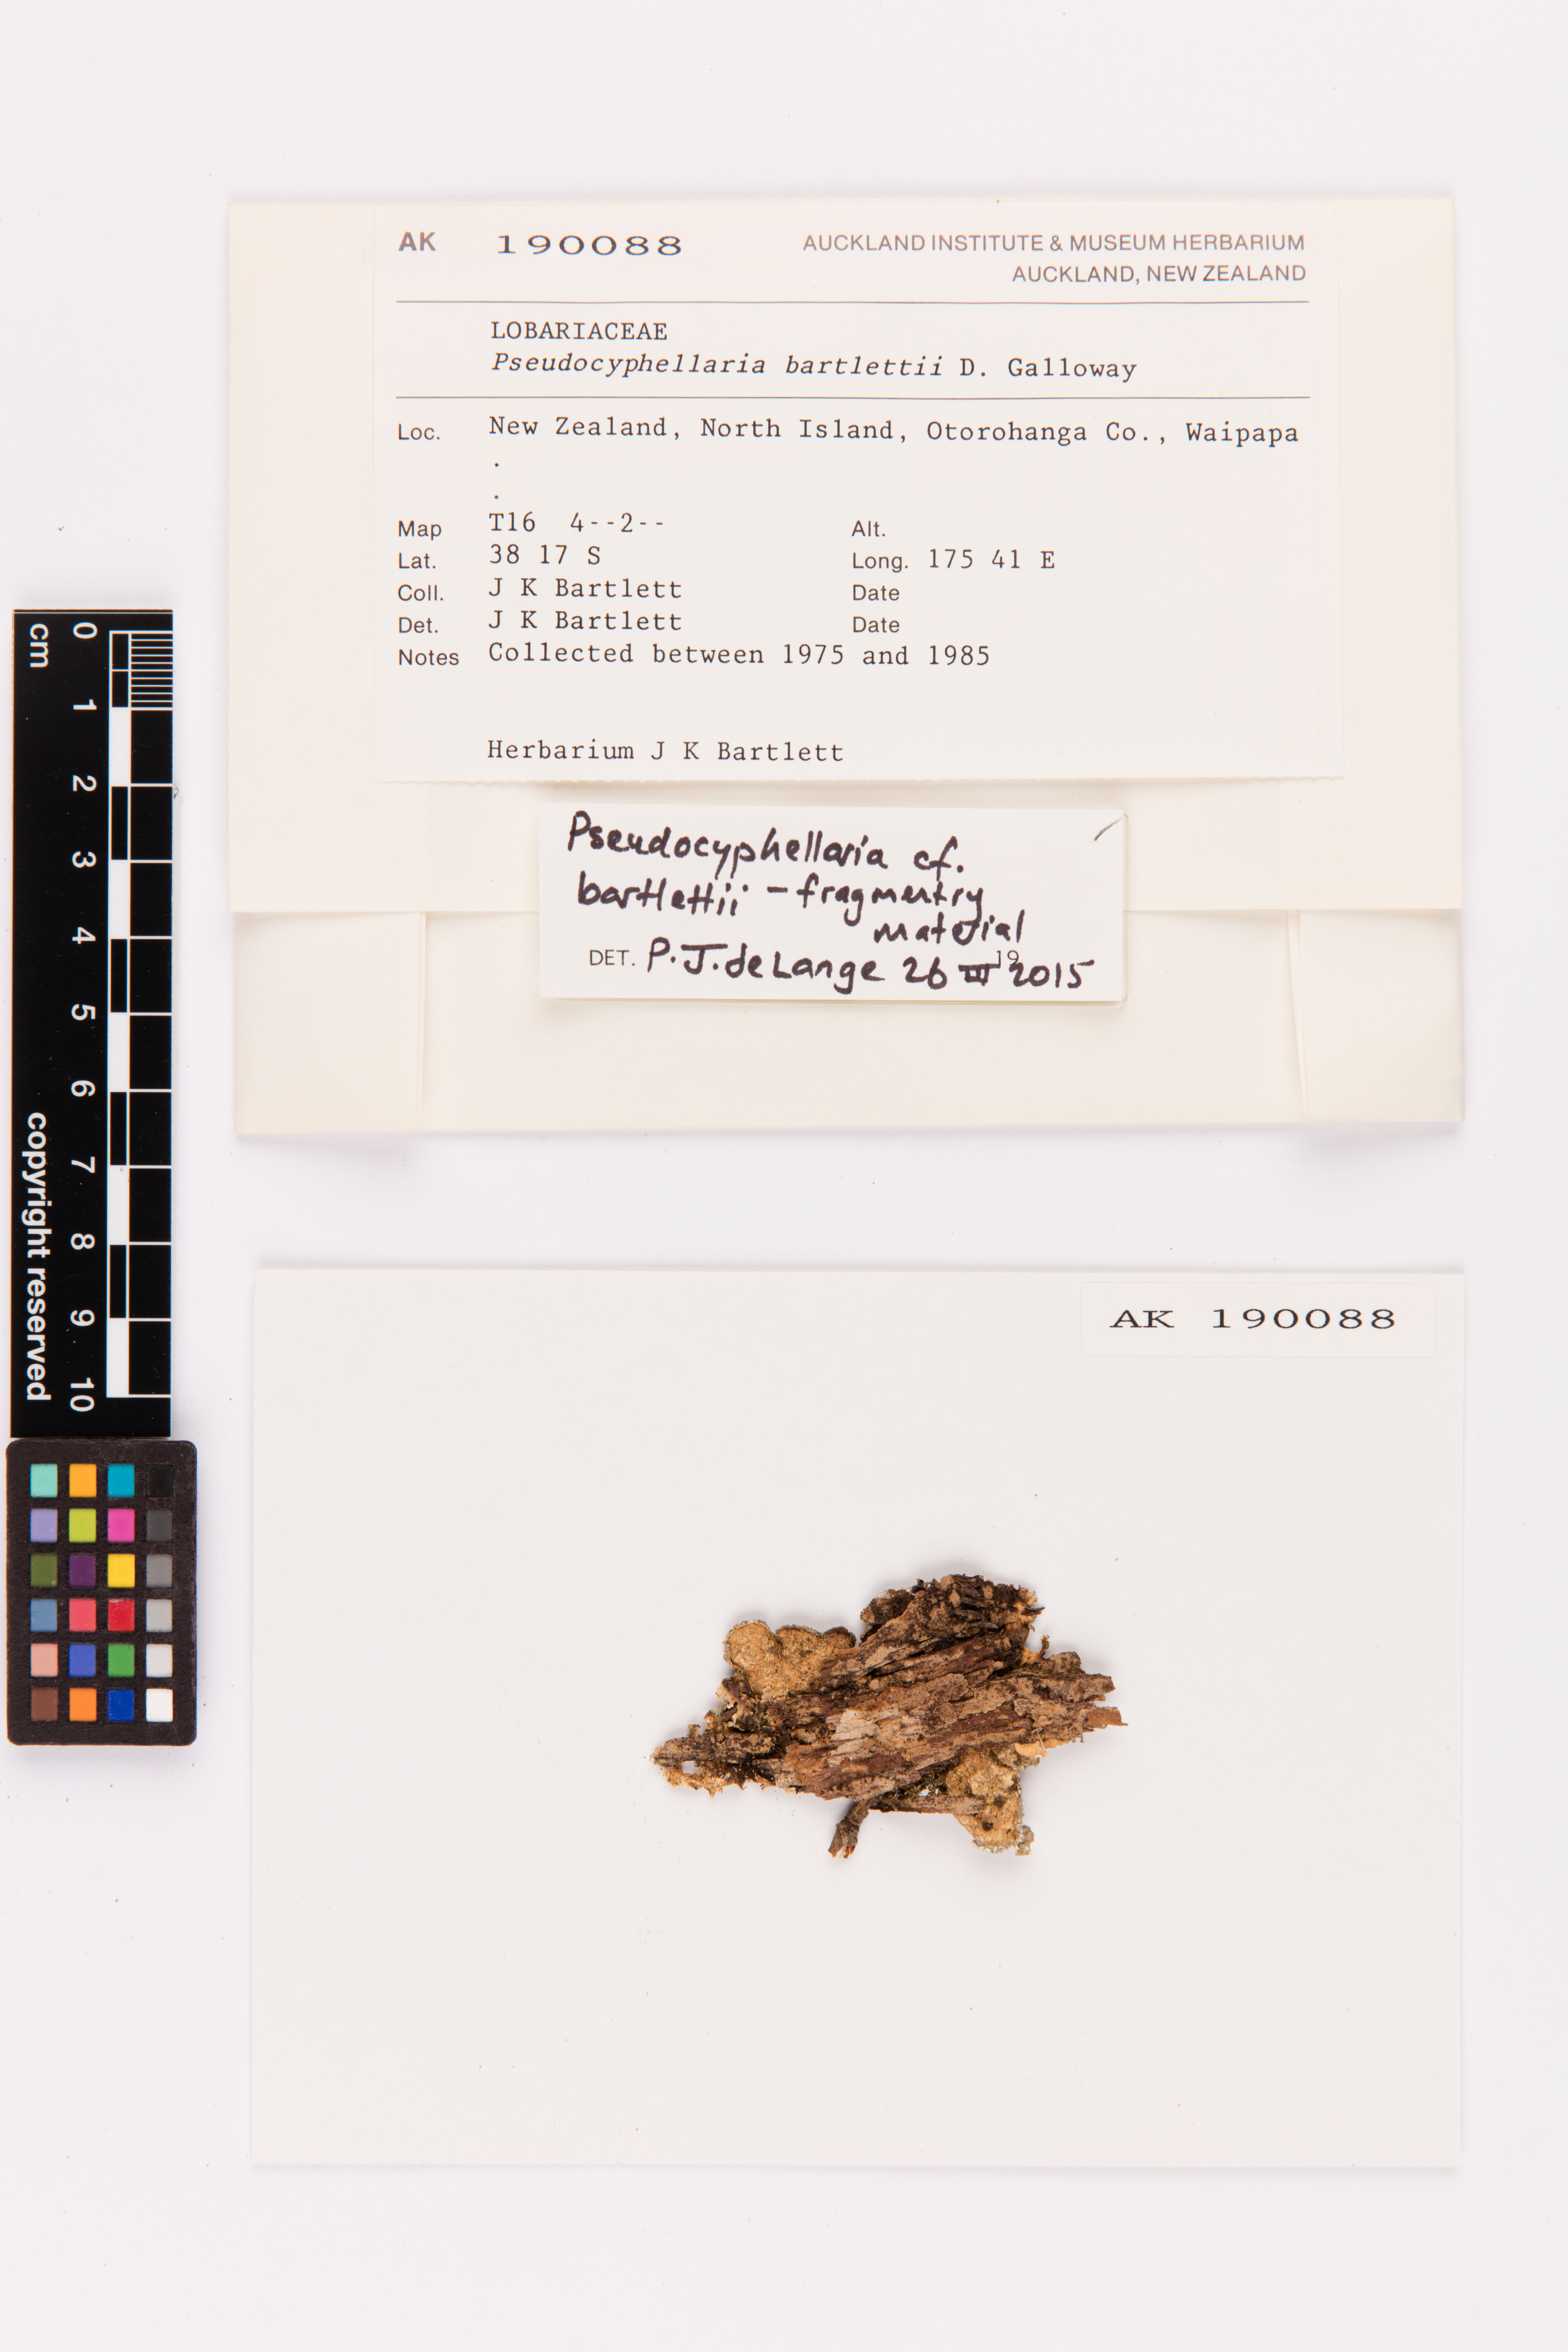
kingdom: Fungi
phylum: Ascomycota
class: Lecanoromycetes
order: Peltigerales
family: Lobariaceae
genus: Pseudocyphellaria
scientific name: Pseudocyphellaria bartlettii
